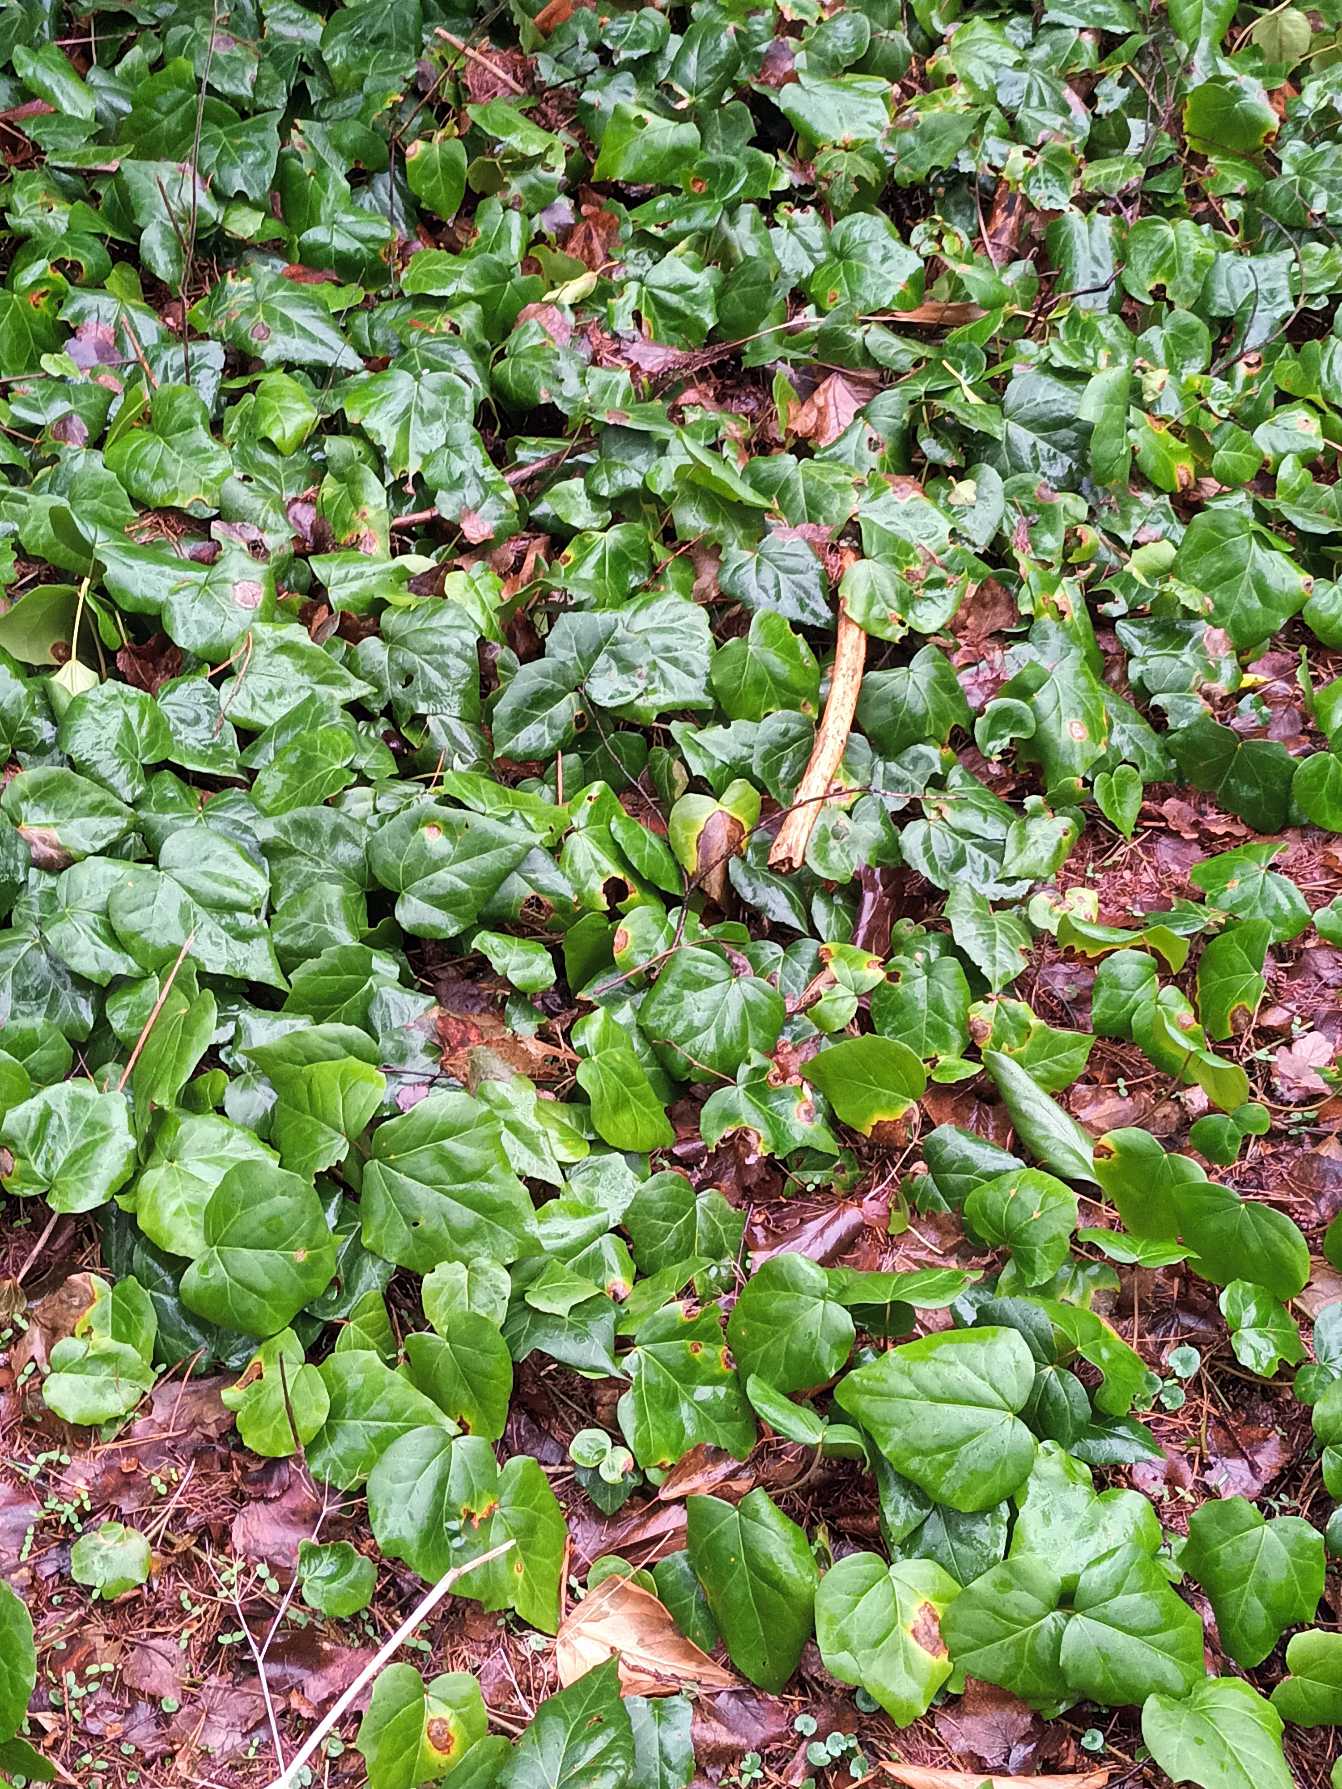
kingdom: Plantae
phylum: Tracheophyta
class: Magnoliopsida
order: Apiales
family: Araliaceae
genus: Hedera
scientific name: Hedera colchica
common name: Kæmpe-vedbend
